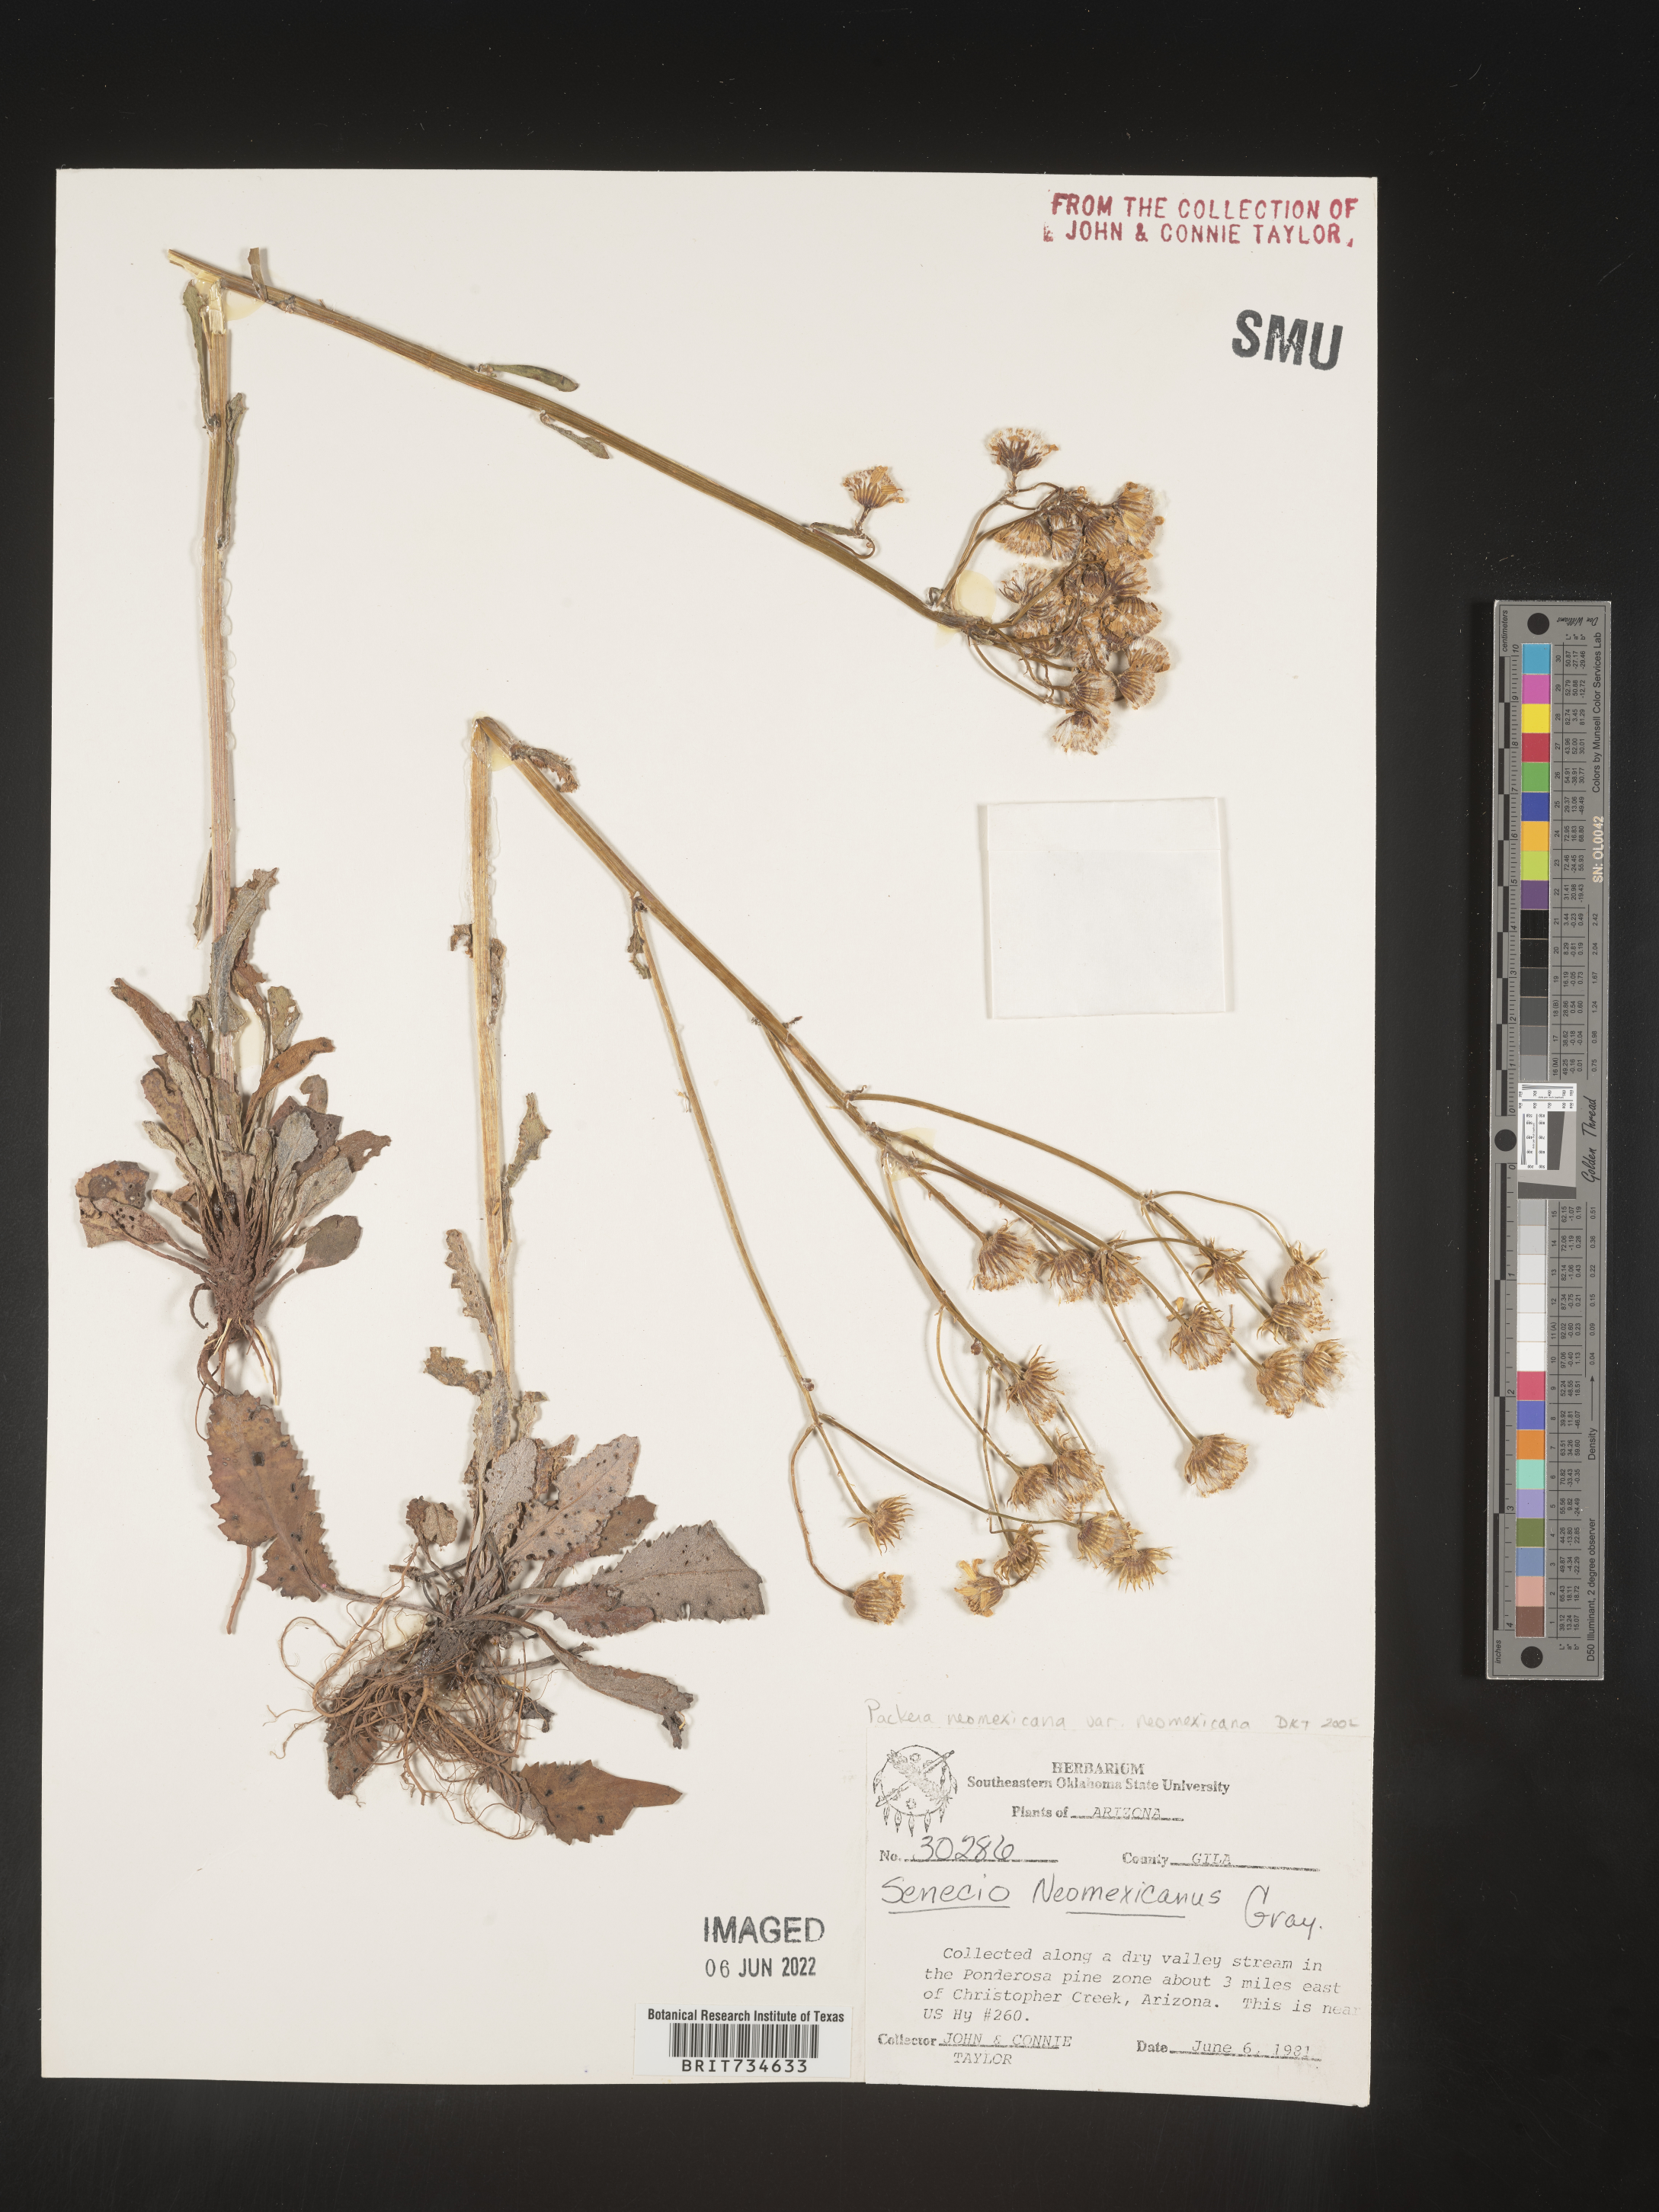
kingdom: Plantae
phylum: Tracheophyta
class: Magnoliopsida
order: Asterales
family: Asteraceae
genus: Packera
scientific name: Packera neomexicana
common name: New mexico butterweed
